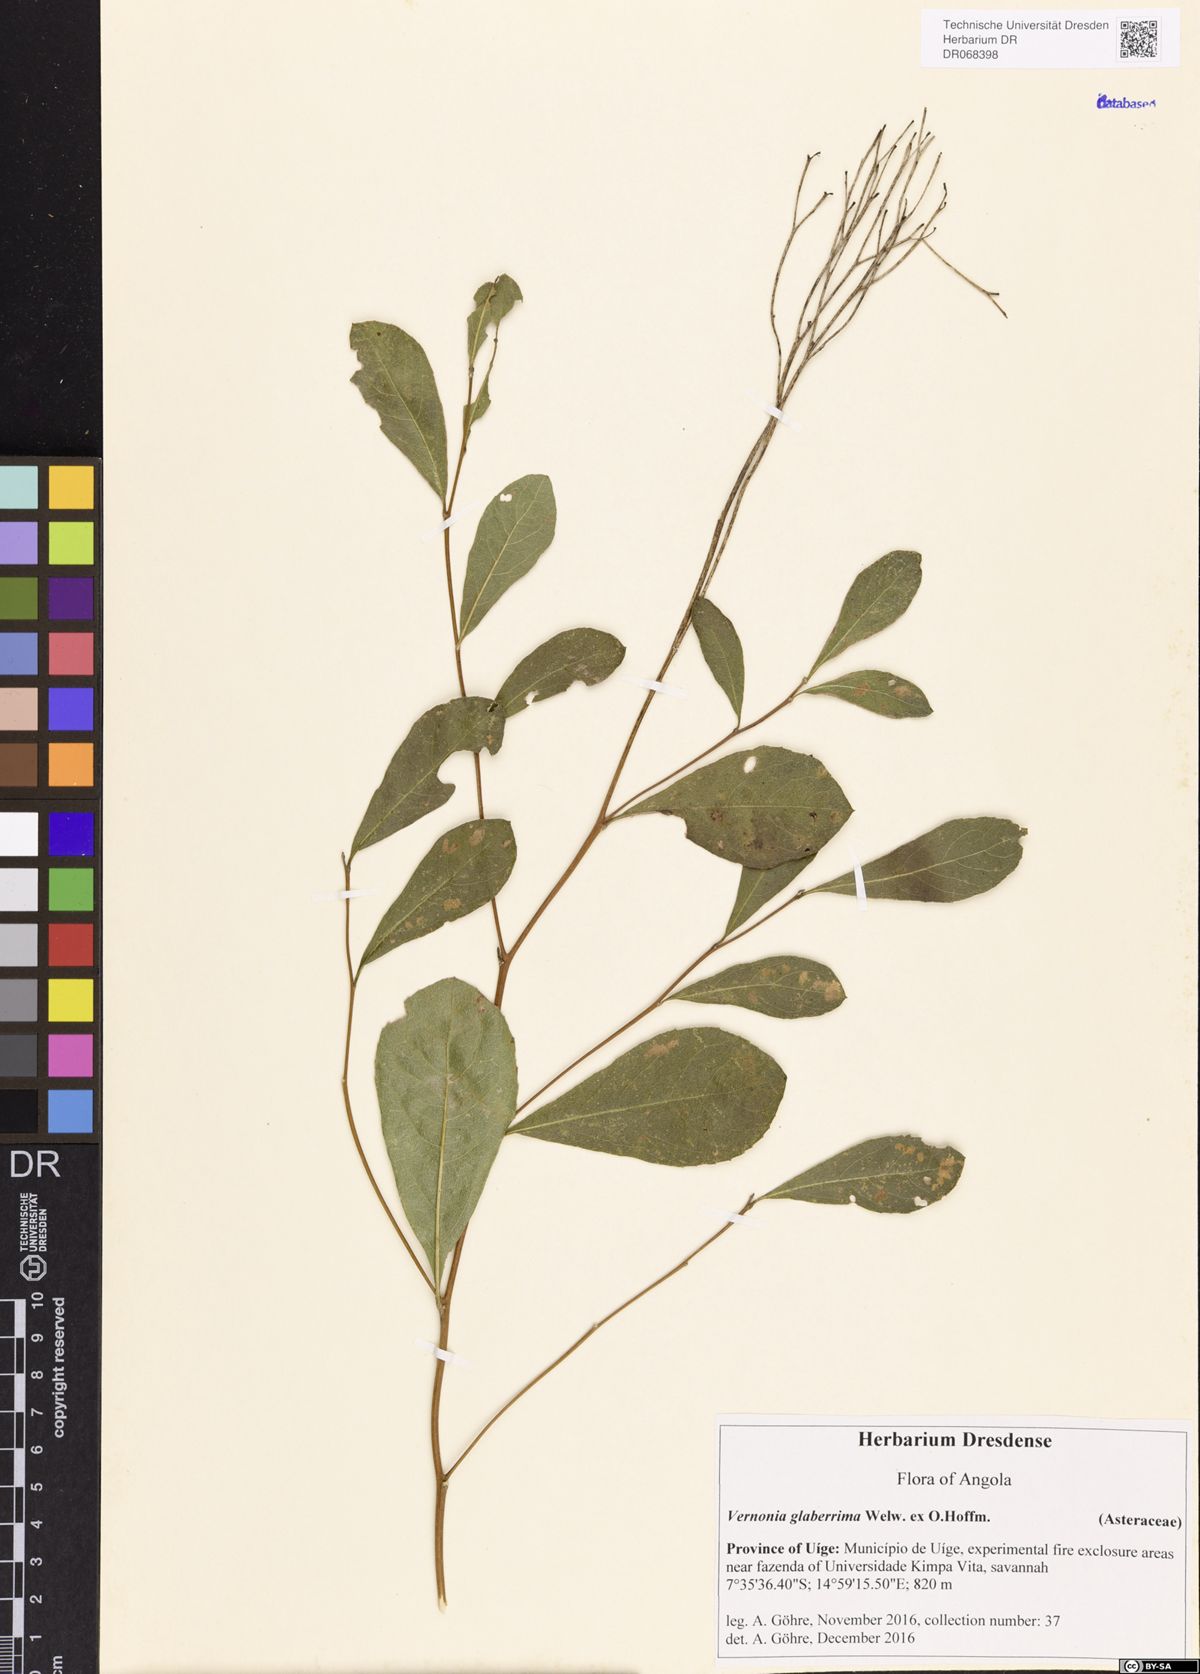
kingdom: Plantae
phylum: Tracheophyta
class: Magnoliopsida
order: Asterales
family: Asteraceae
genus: Gymnanthemum
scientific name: Gymnanthemum glaberrimum
